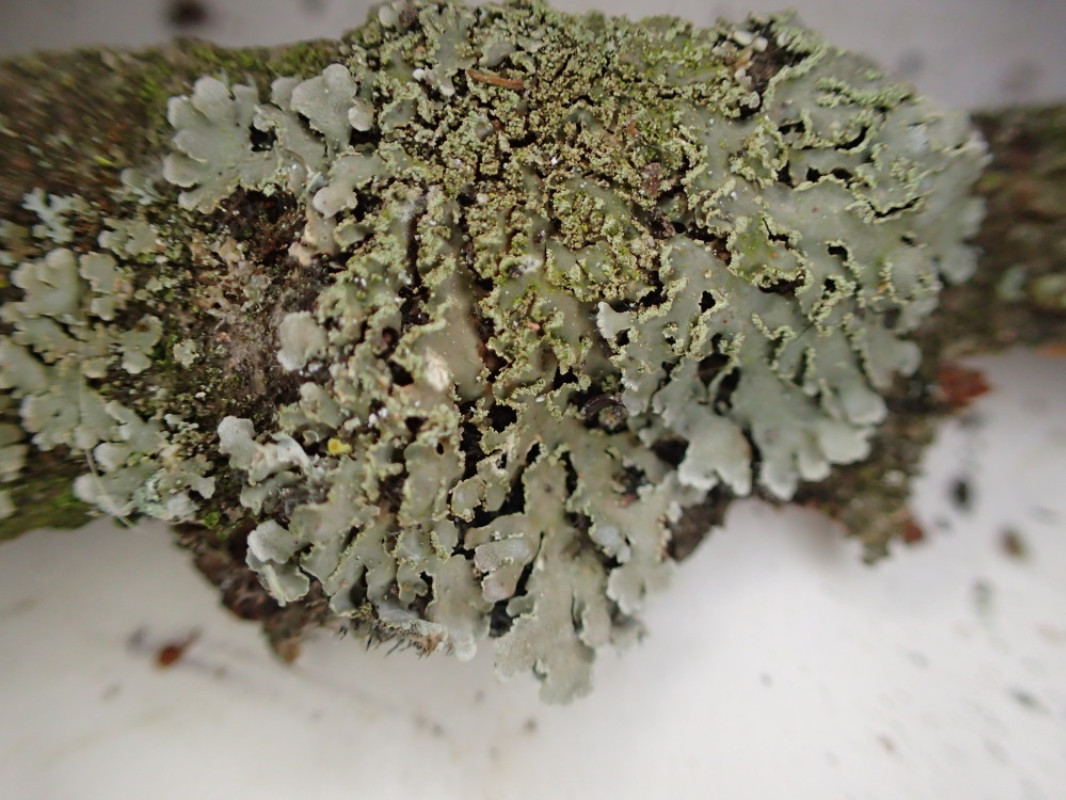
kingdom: Fungi
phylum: Ascomycota
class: Lecanoromycetes
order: Caliciales
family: Physciaceae
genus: Physconia
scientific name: Physconia perisidiosa
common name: liden dugrosetlav
